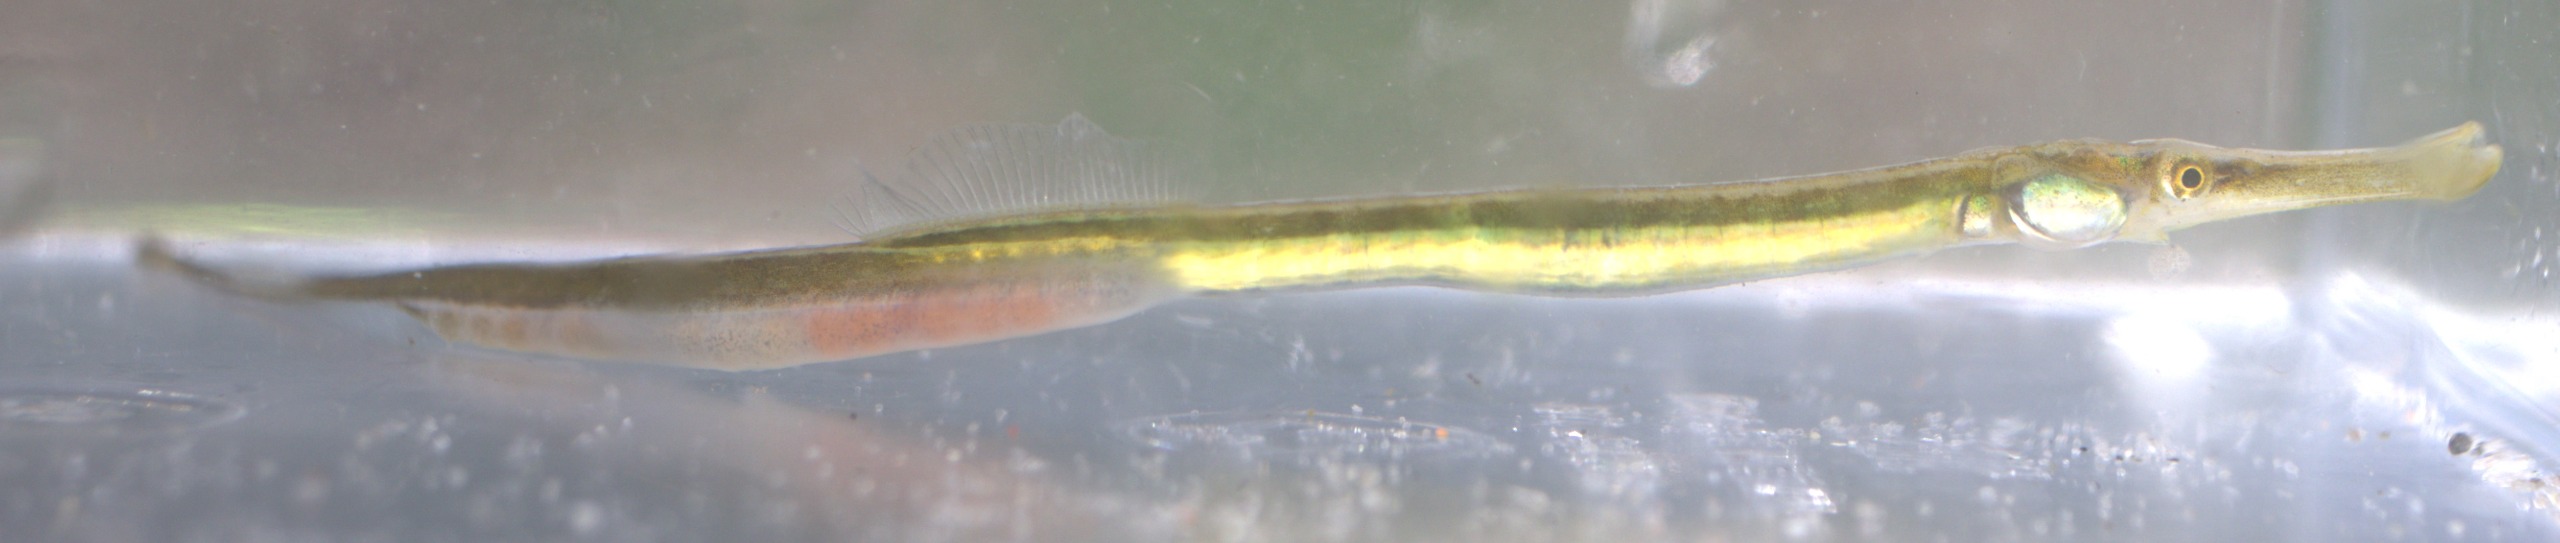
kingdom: Animalia
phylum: Chordata
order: Syngnathiformes
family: Syngnathidae
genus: Syngnathus
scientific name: Syngnathus typhle
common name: Almindelig tangnål
